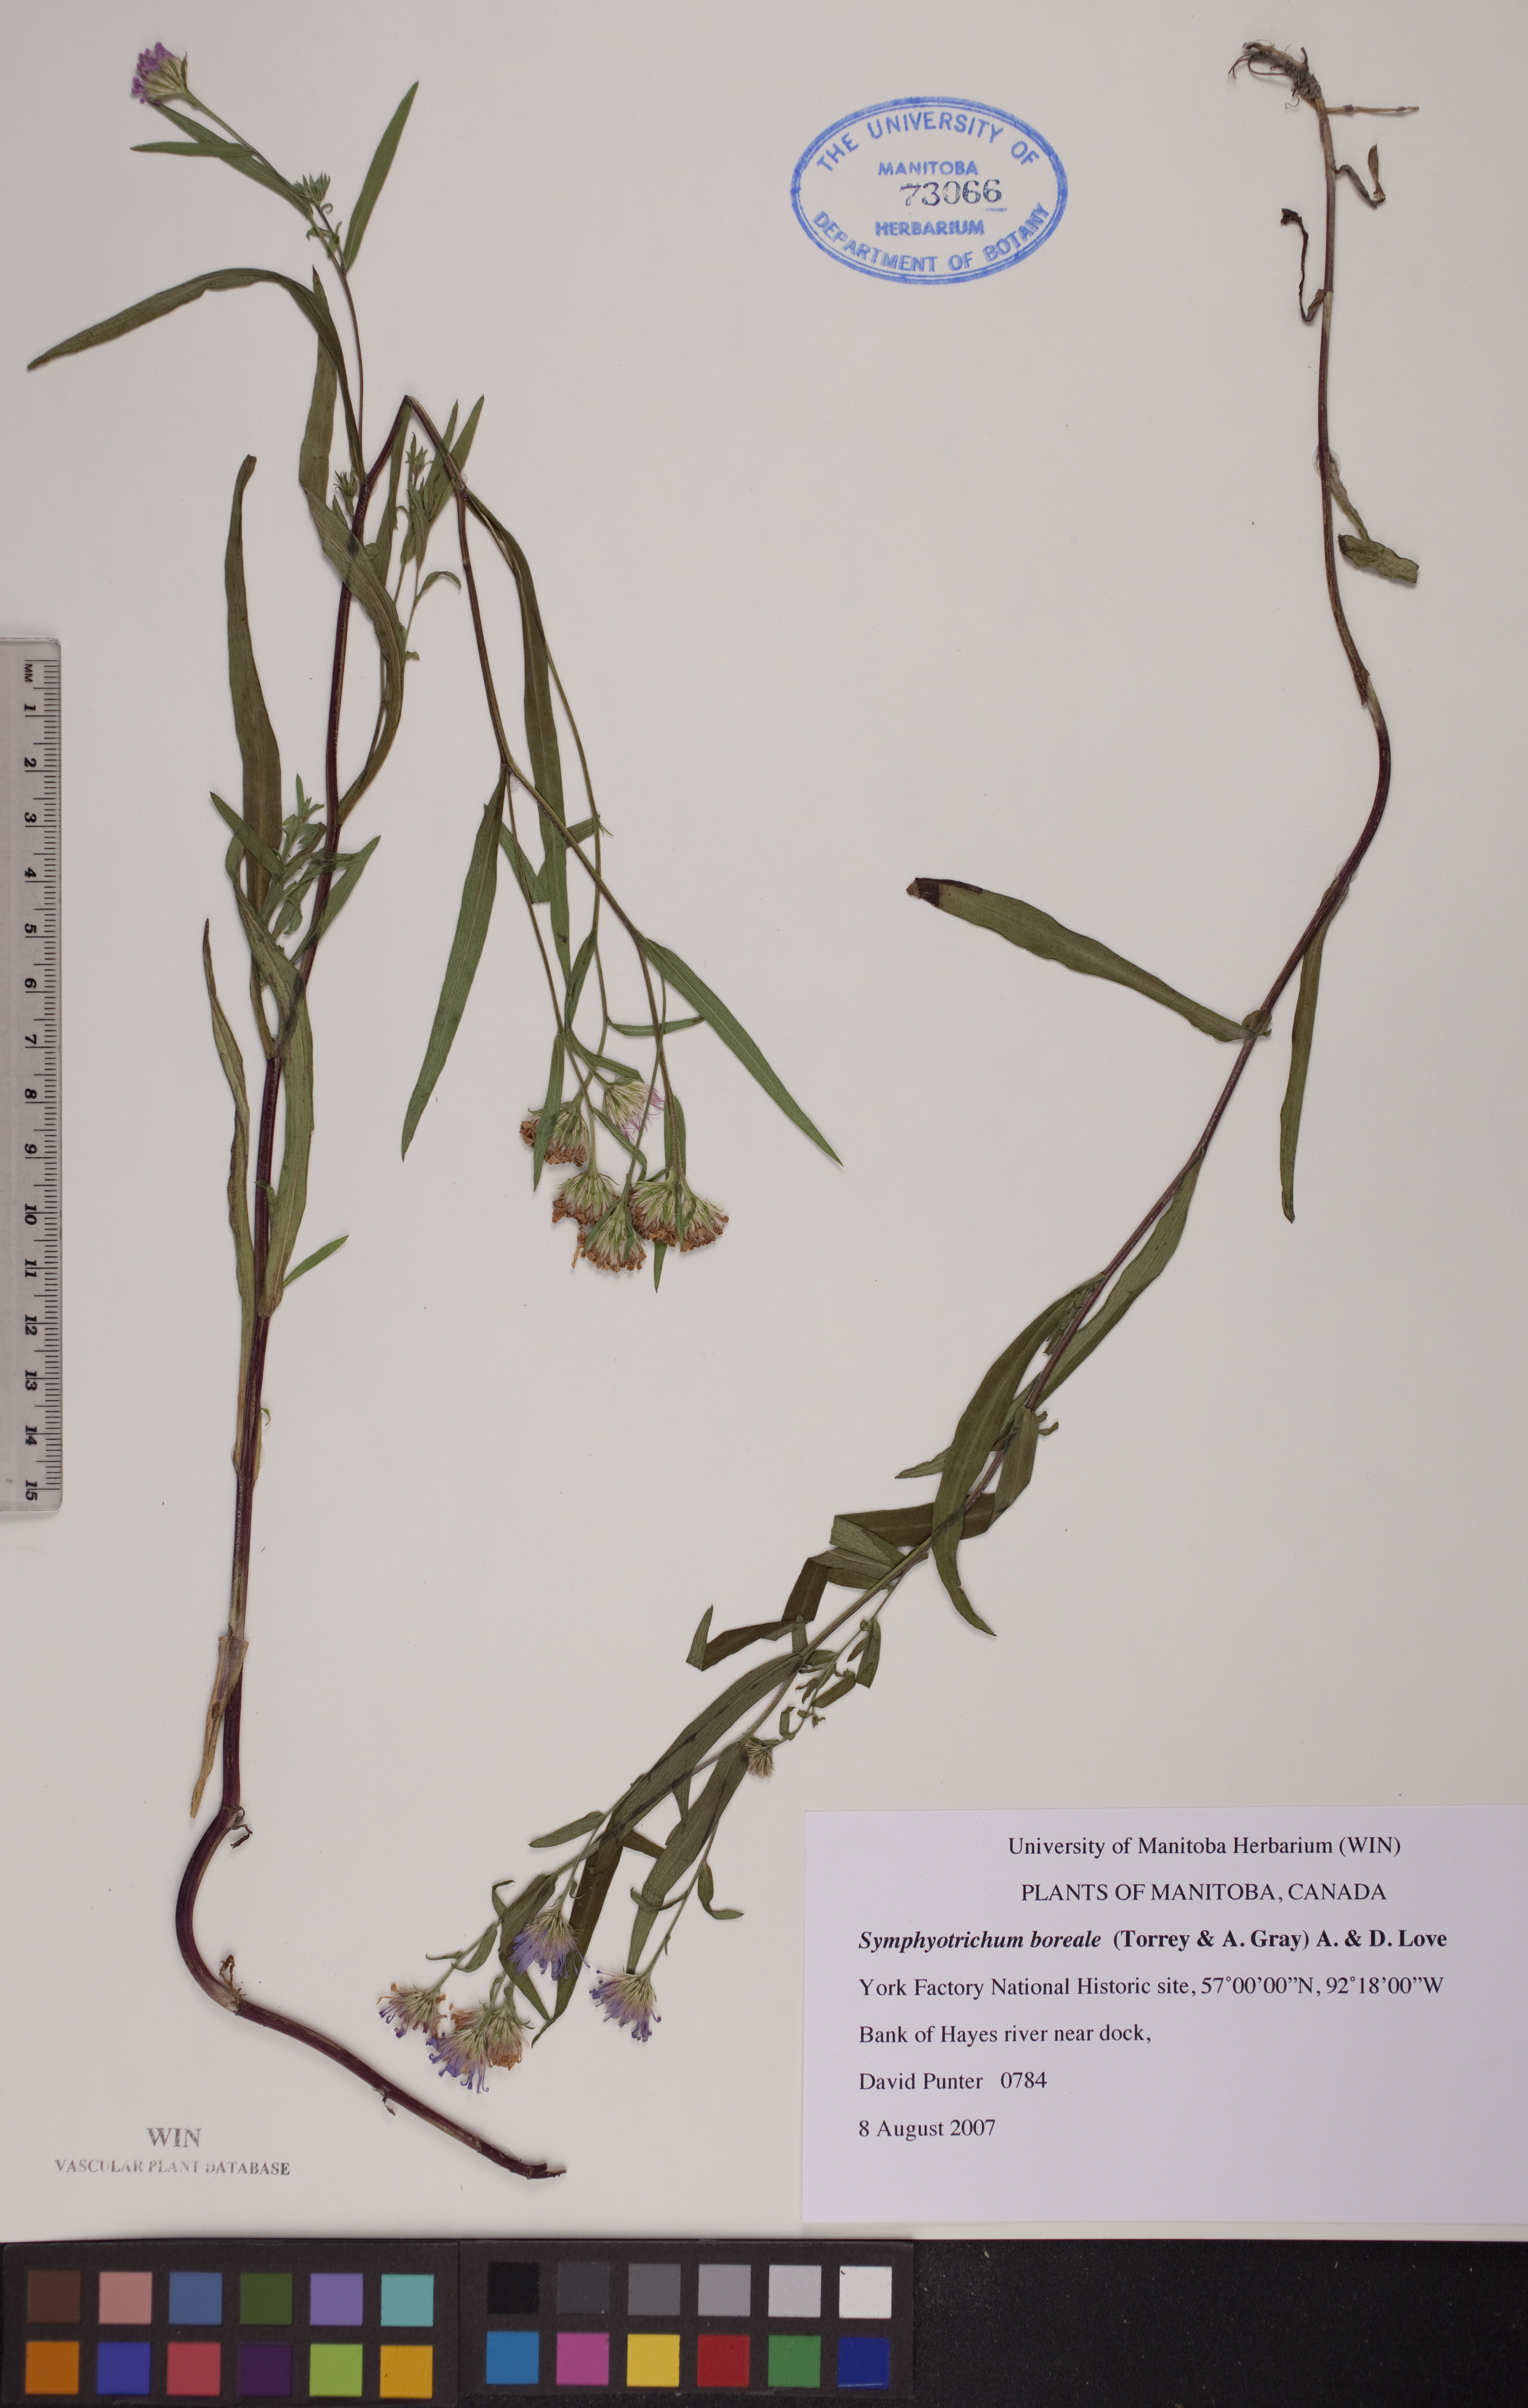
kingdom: Plantae
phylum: Tracheophyta
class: Magnoliopsida
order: Asterales
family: Asteraceae
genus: Symphyotrichum
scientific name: Symphyotrichum boreale
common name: Northern bog aster
